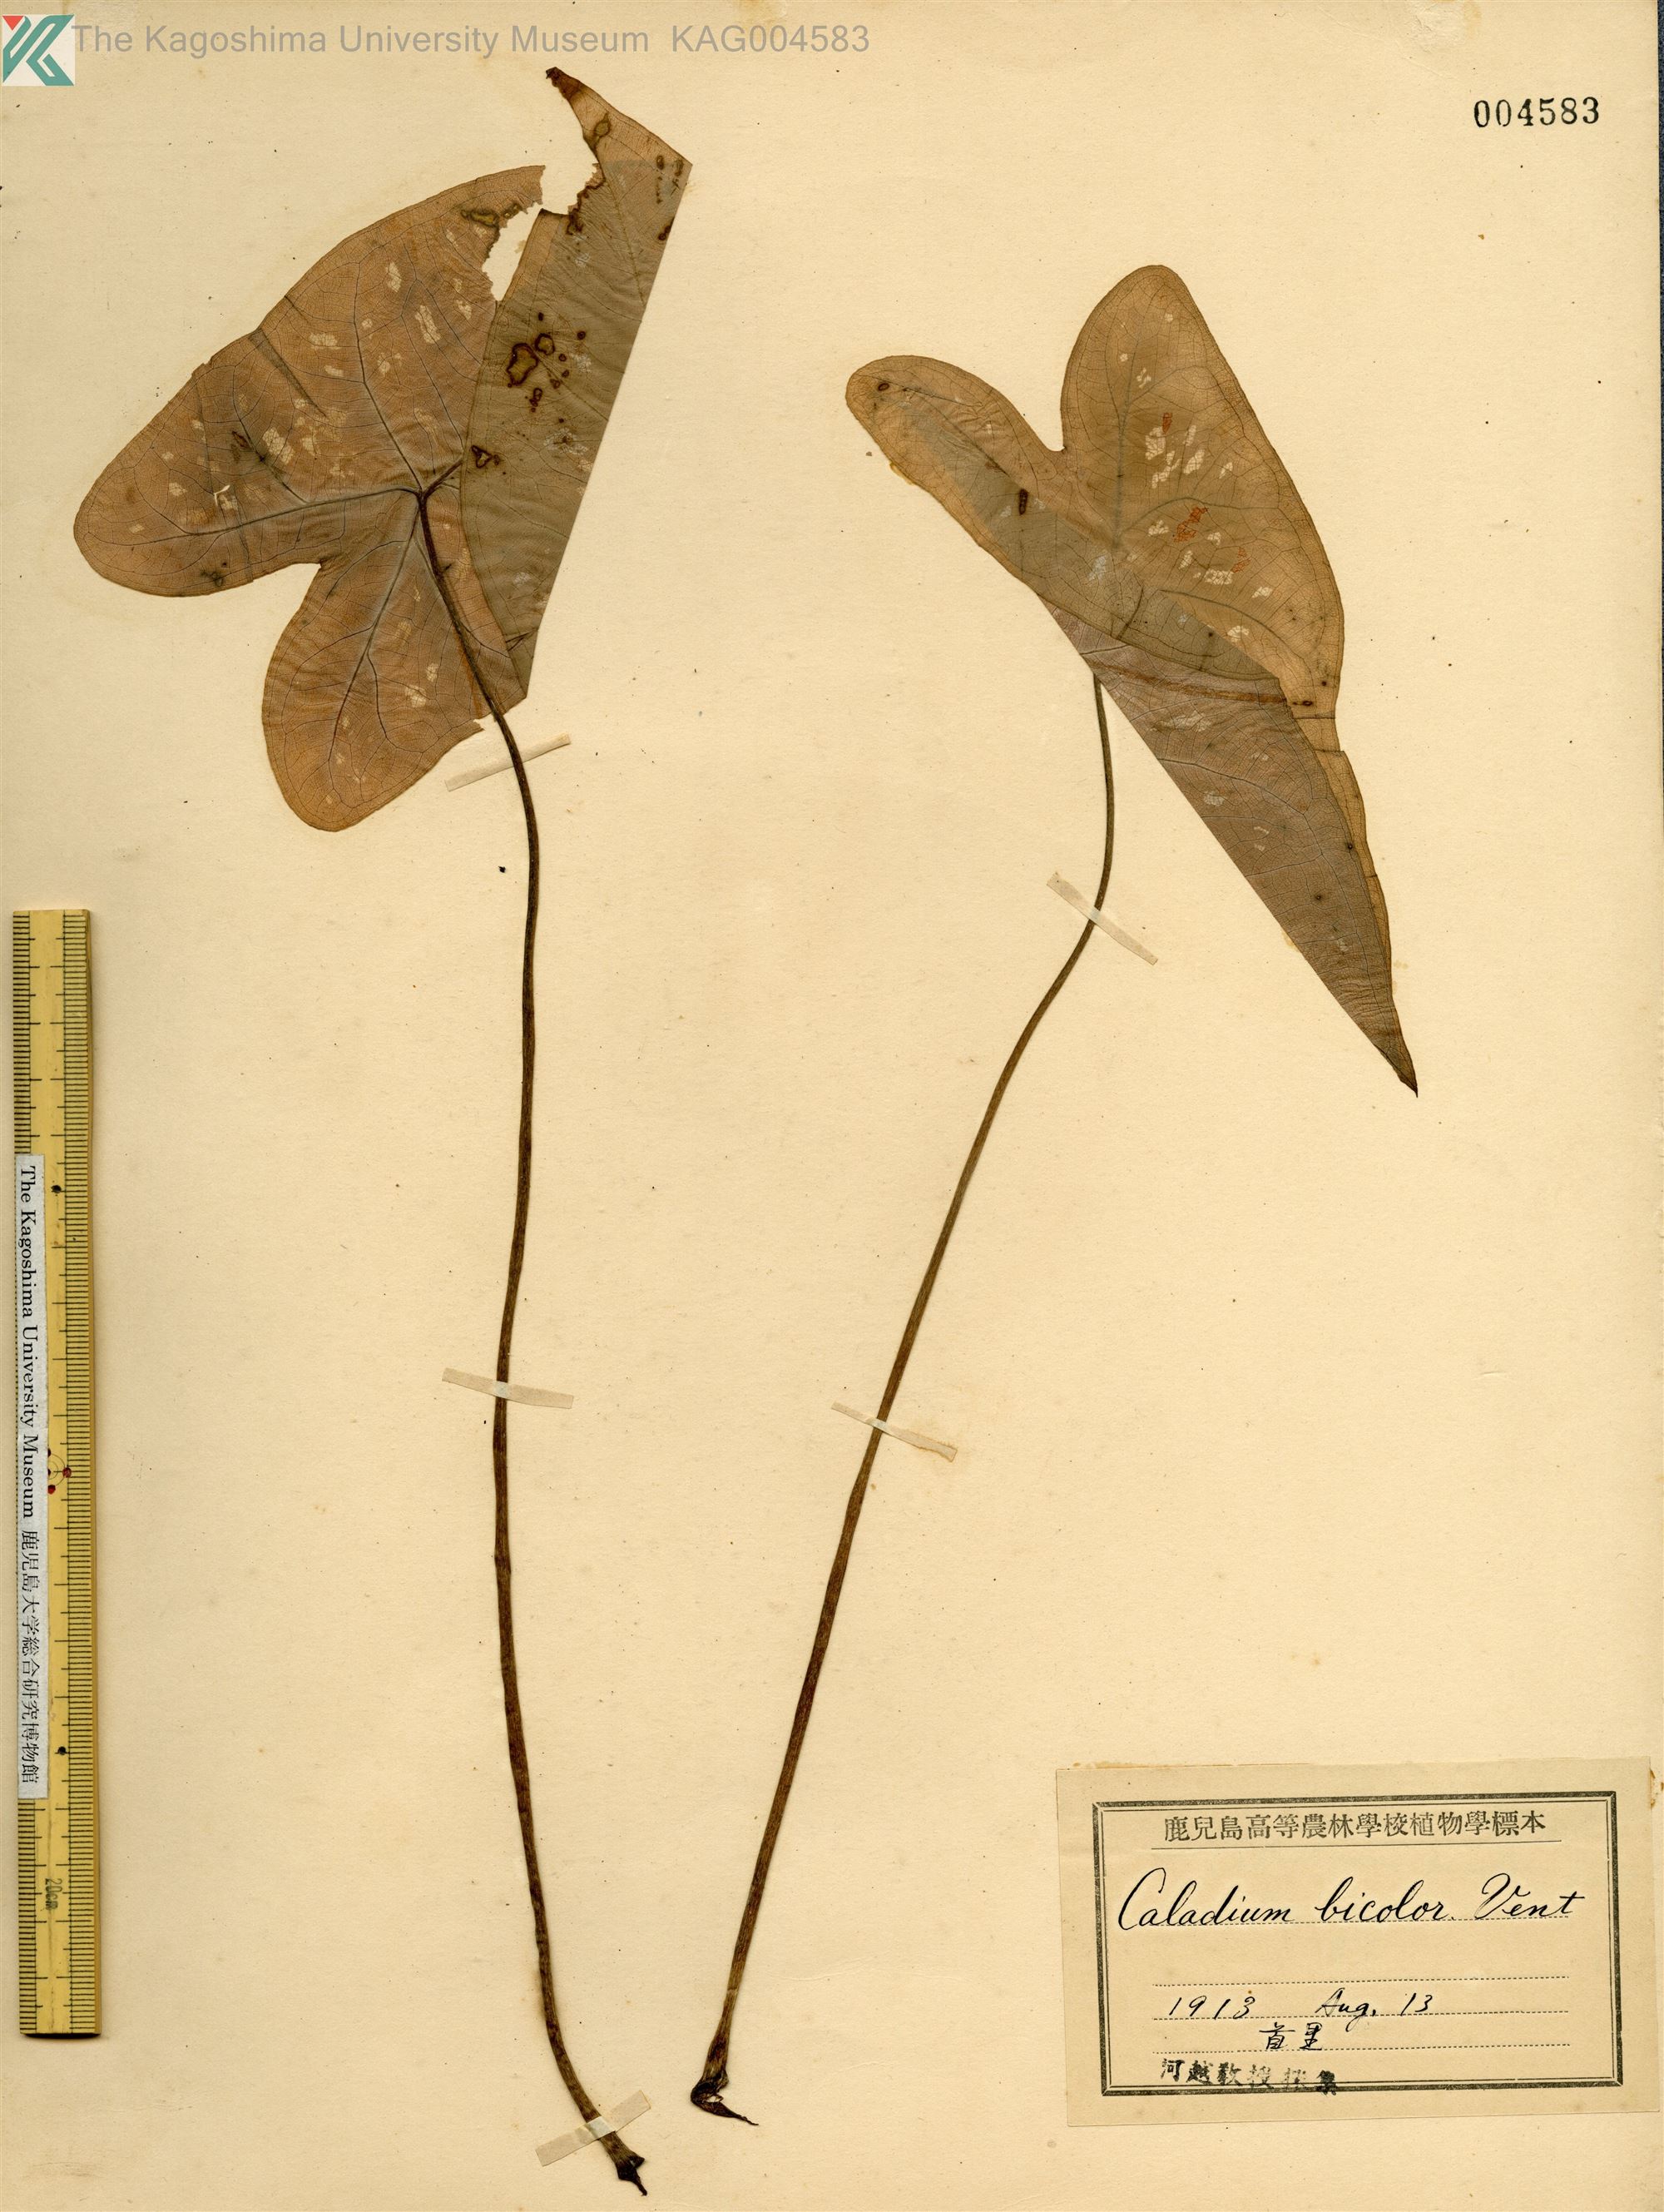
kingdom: Plantae
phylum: Tracheophyta
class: Liliopsida
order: Alismatales
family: Araceae
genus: Caladium
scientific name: Caladium bicolor
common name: Artist's pallet
